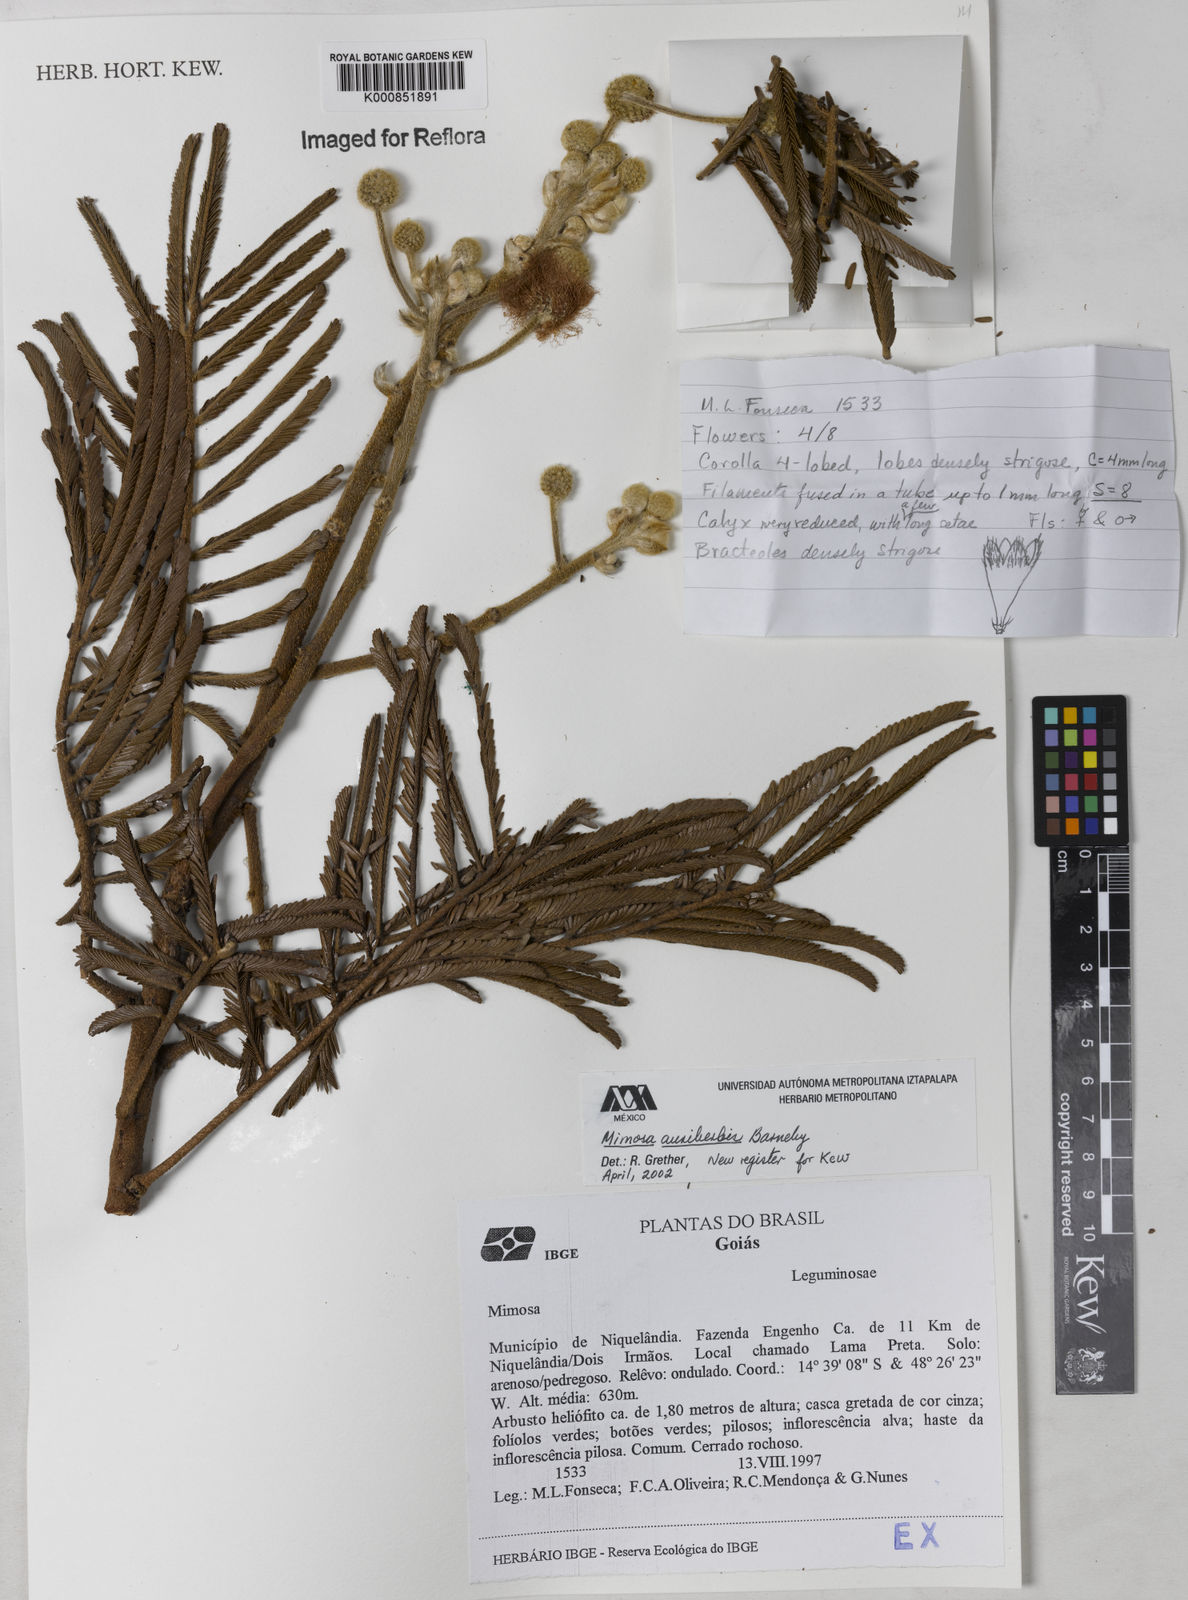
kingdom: Plantae
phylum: Tracheophyta
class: Magnoliopsida
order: Fabales
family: Fabaceae
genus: Mimosa
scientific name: Mimosa foliolosa
